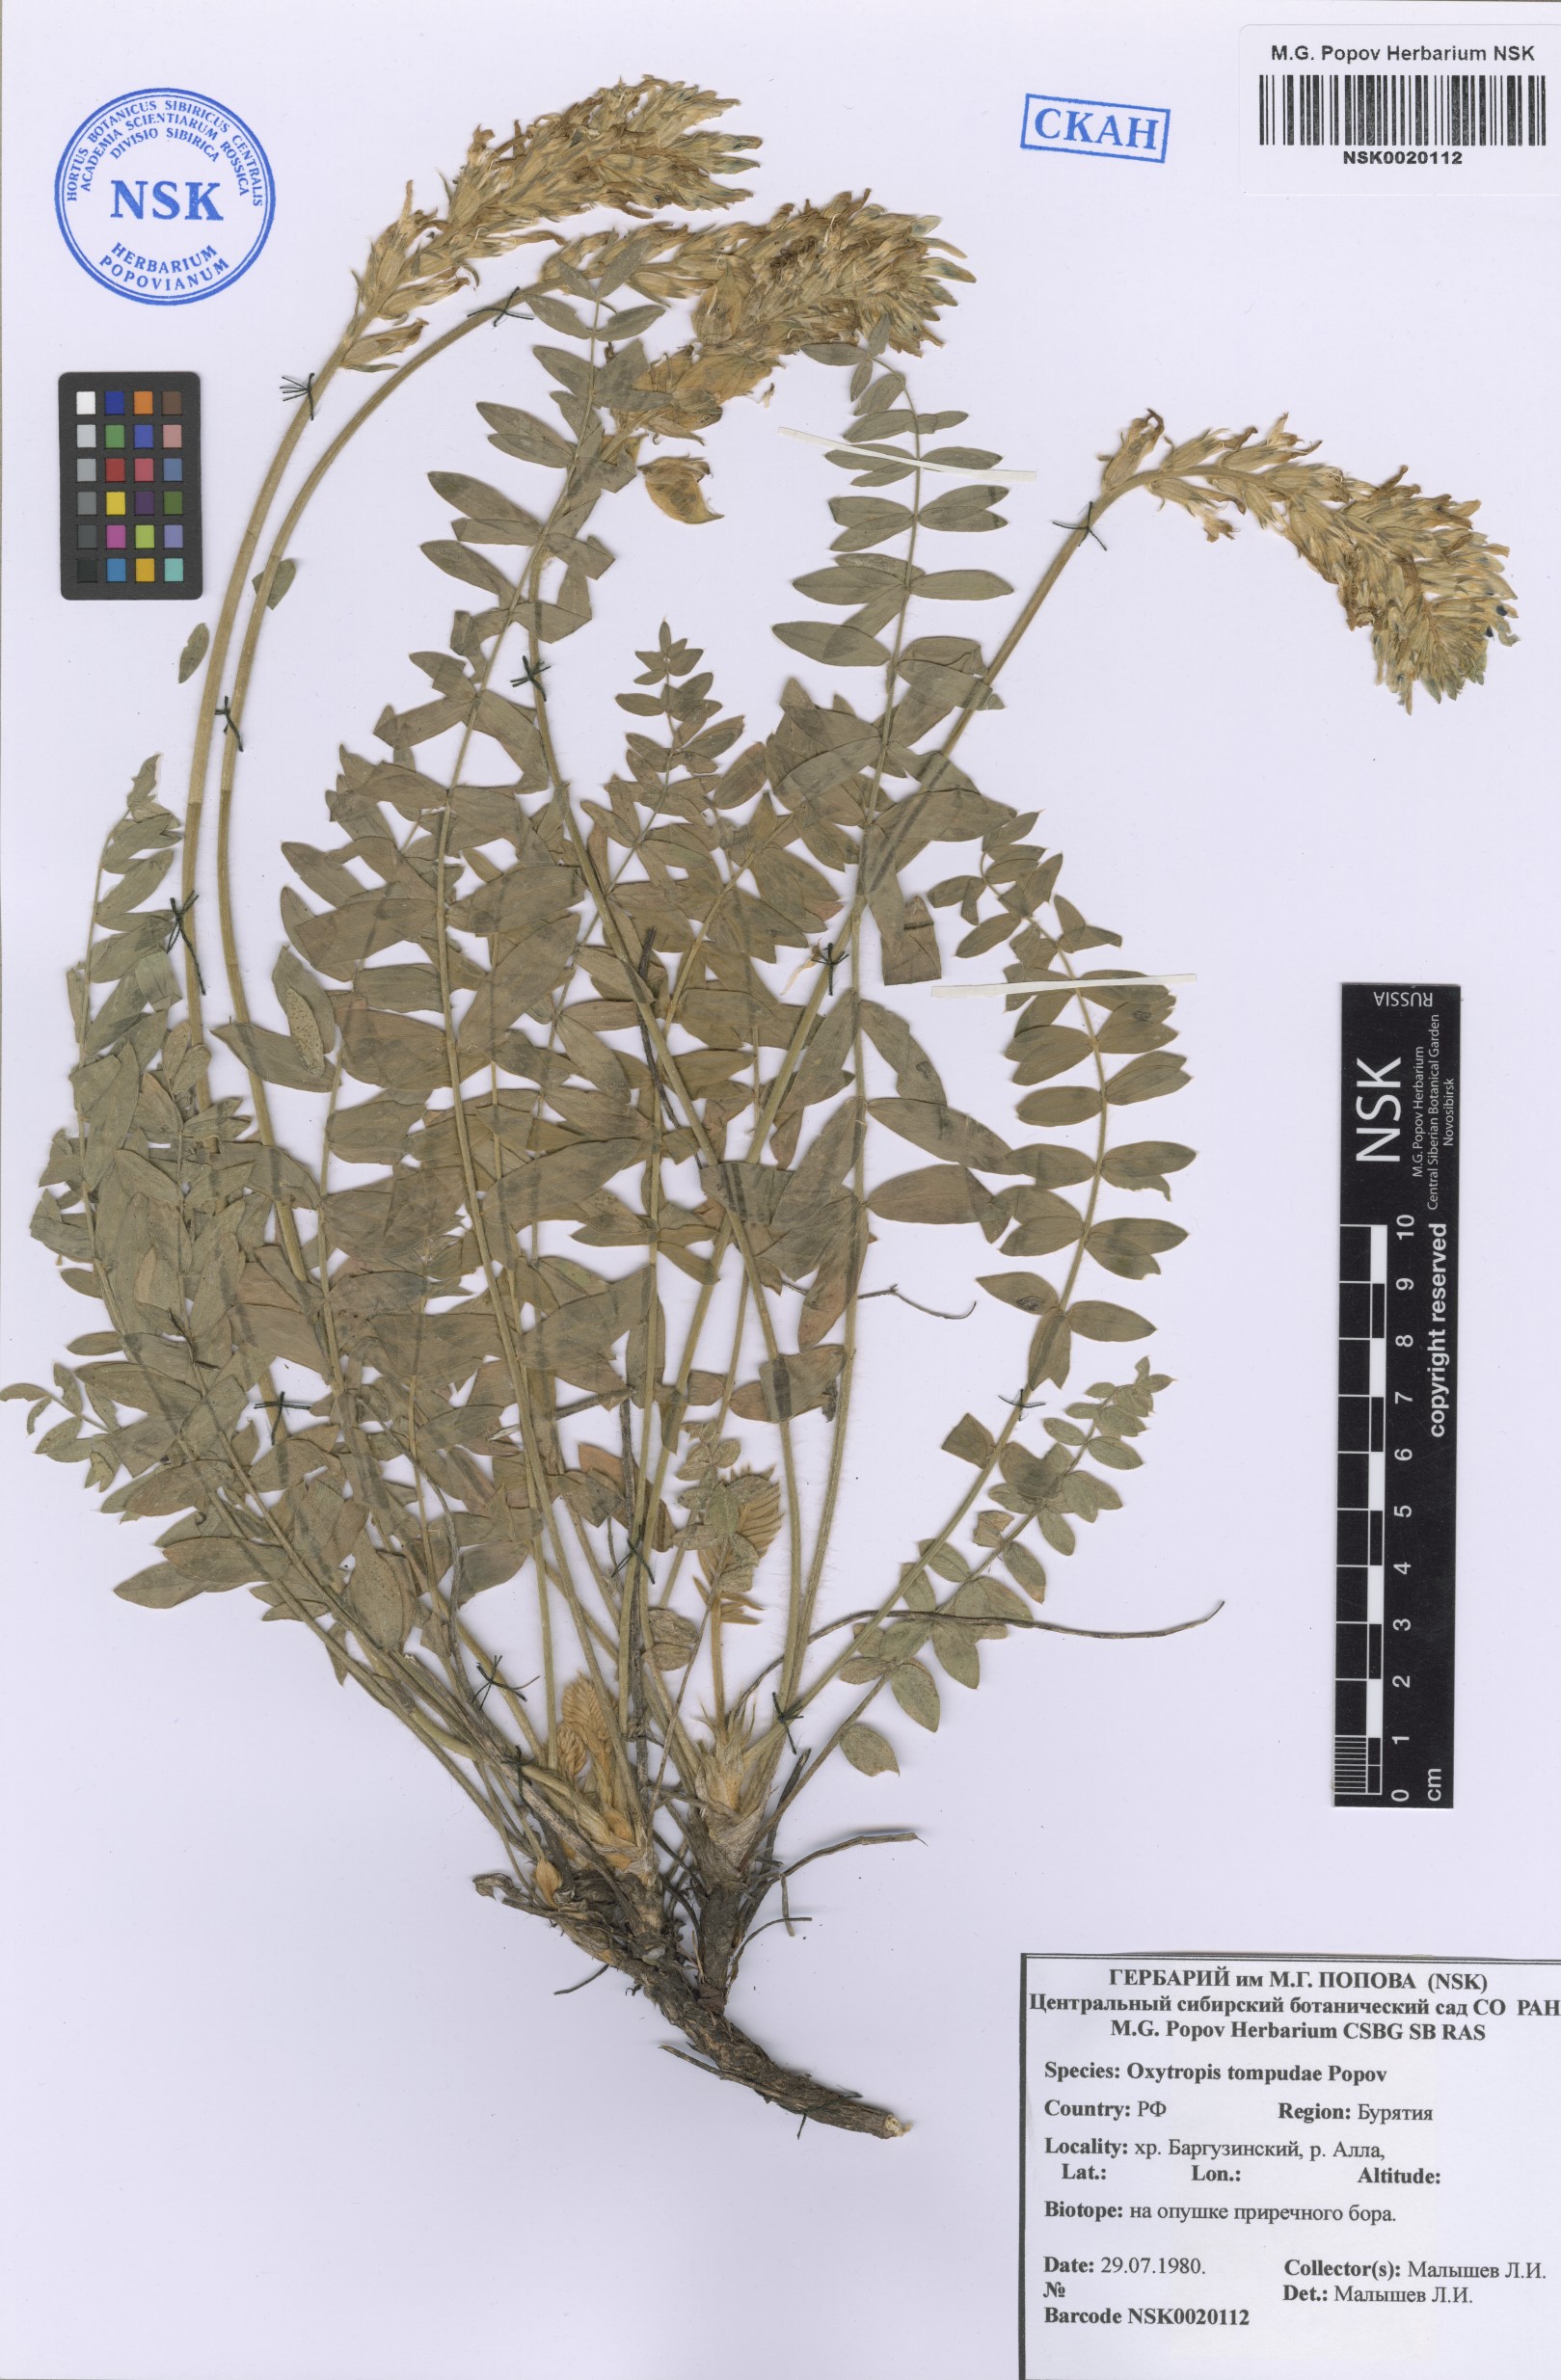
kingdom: Plantae
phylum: Tracheophyta
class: Magnoliopsida
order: Fabales
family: Fabaceae
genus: Oxytropis
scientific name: Oxytropis tompudae
